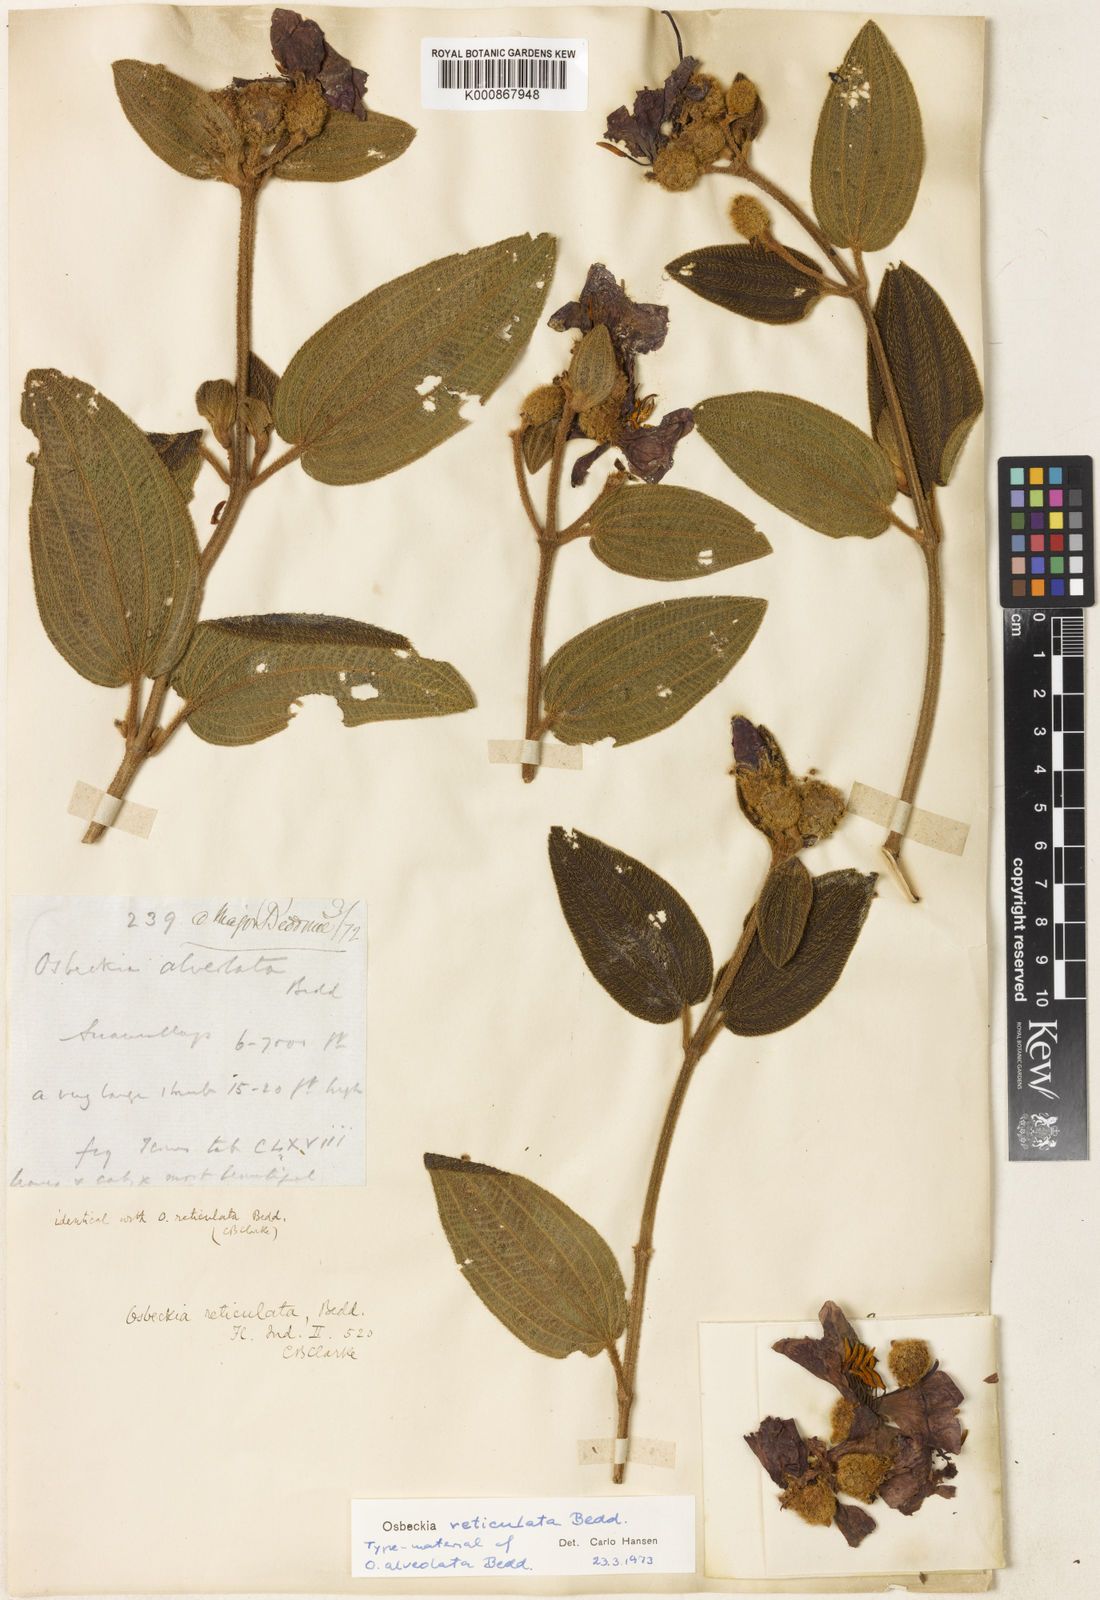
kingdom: Plantae
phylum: Tracheophyta
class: Magnoliopsida
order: Myrtales
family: Melastomataceae
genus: Osbeckia
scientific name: Osbeckia reticulata
